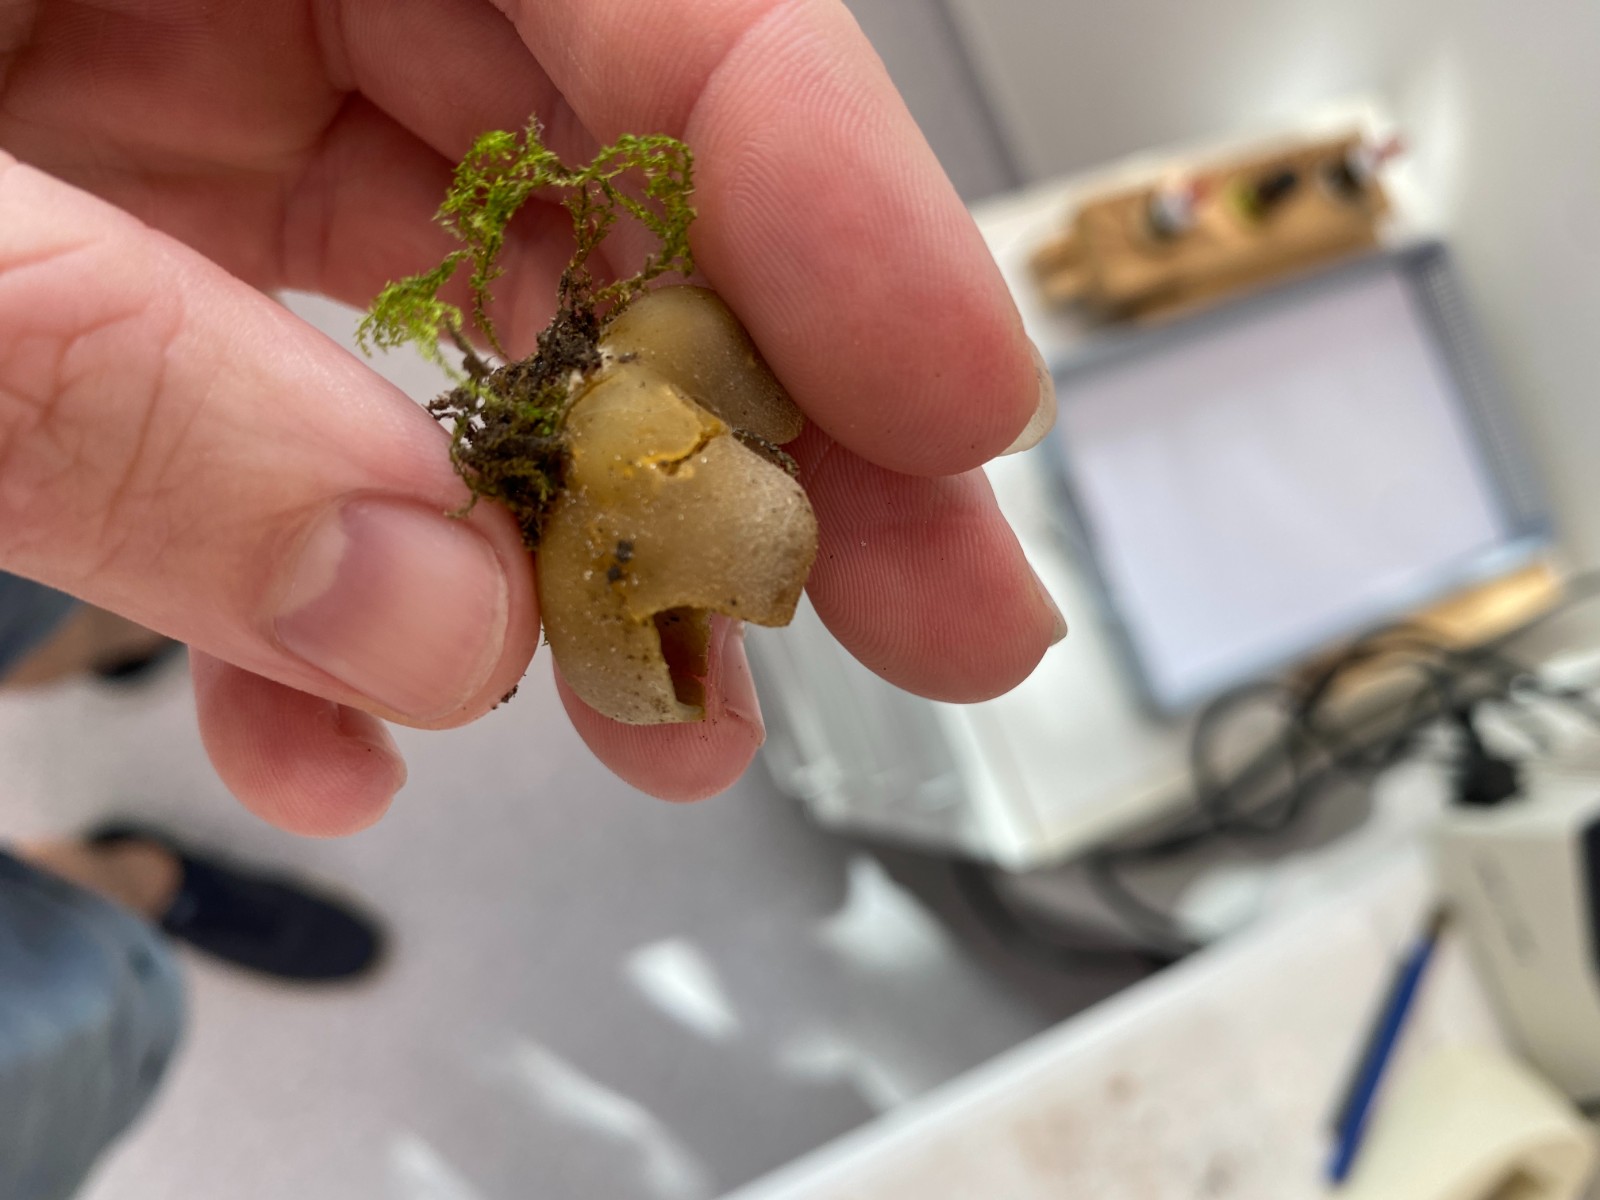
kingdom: Fungi
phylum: Ascomycota
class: Pezizomycetes
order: Pezizales
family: Pezizaceae
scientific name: Pezizaceae
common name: bægersvampfamilien
